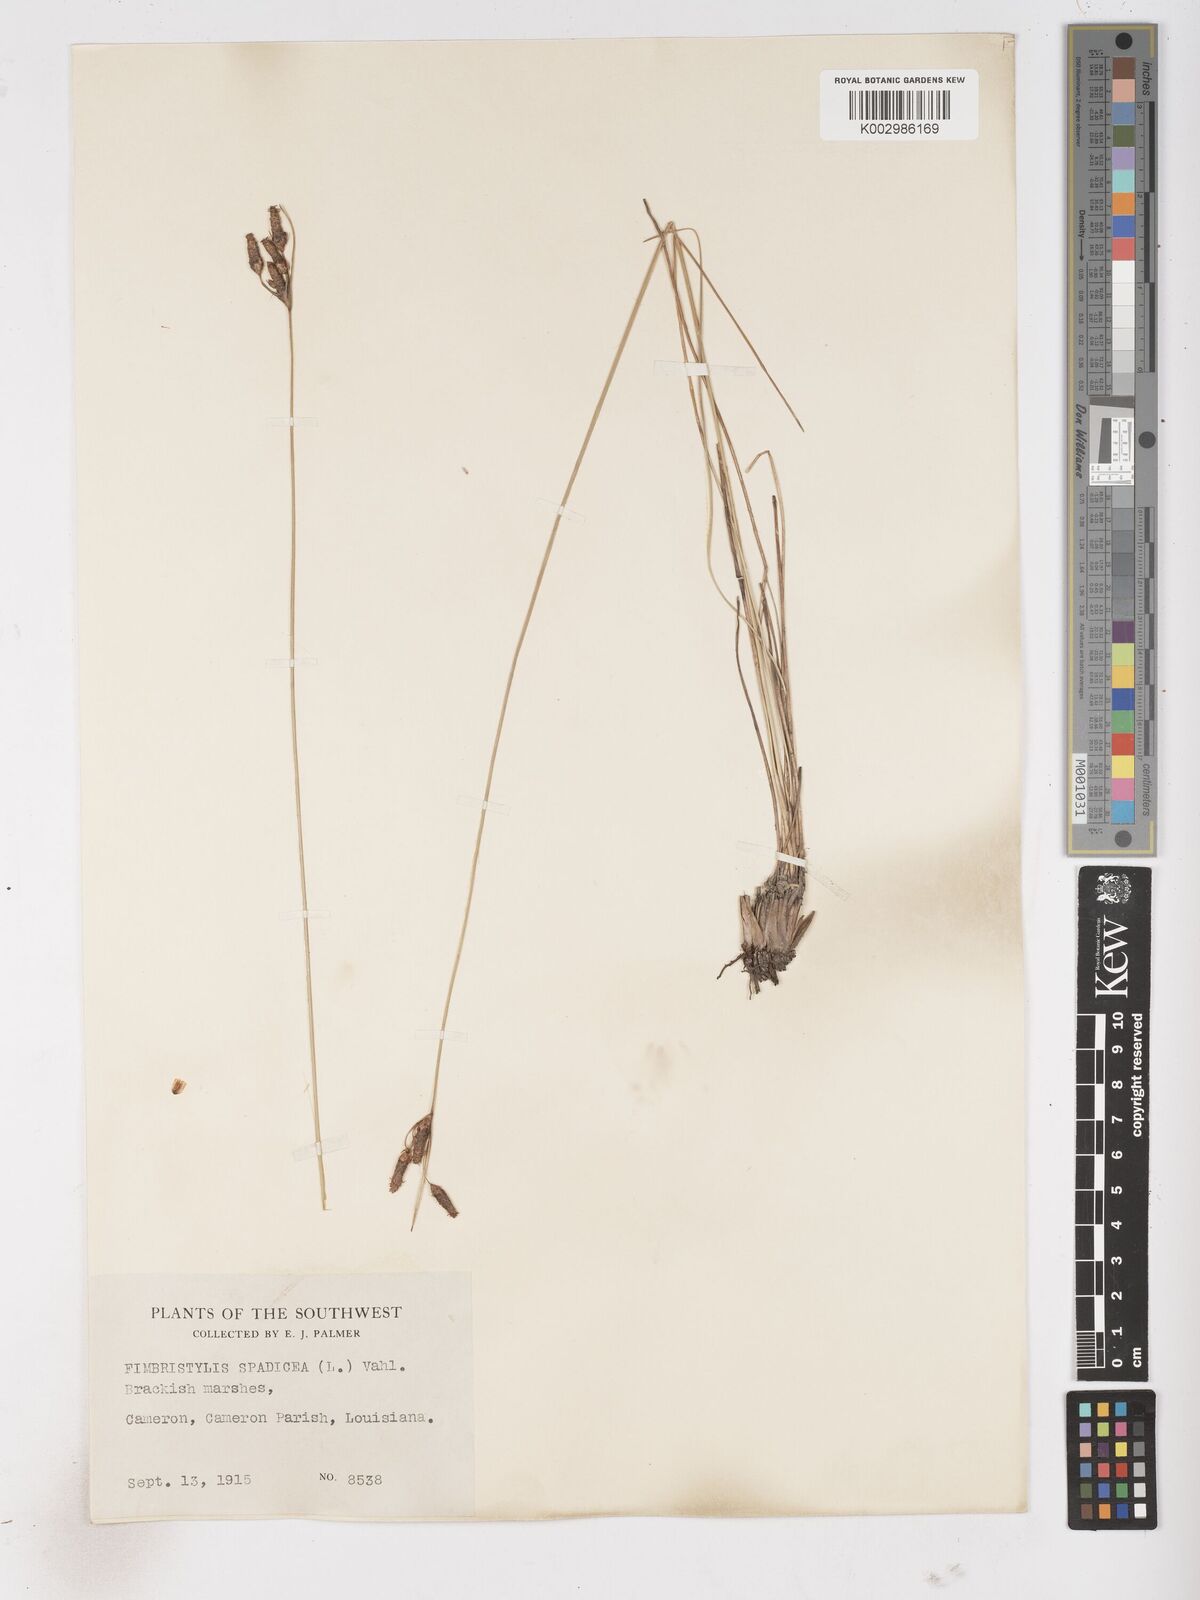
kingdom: Plantae
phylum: Tracheophyta
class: Liliopsida
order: Poales
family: Cyperaceae
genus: Fimbristylis
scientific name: Fimbristylis spadicea
